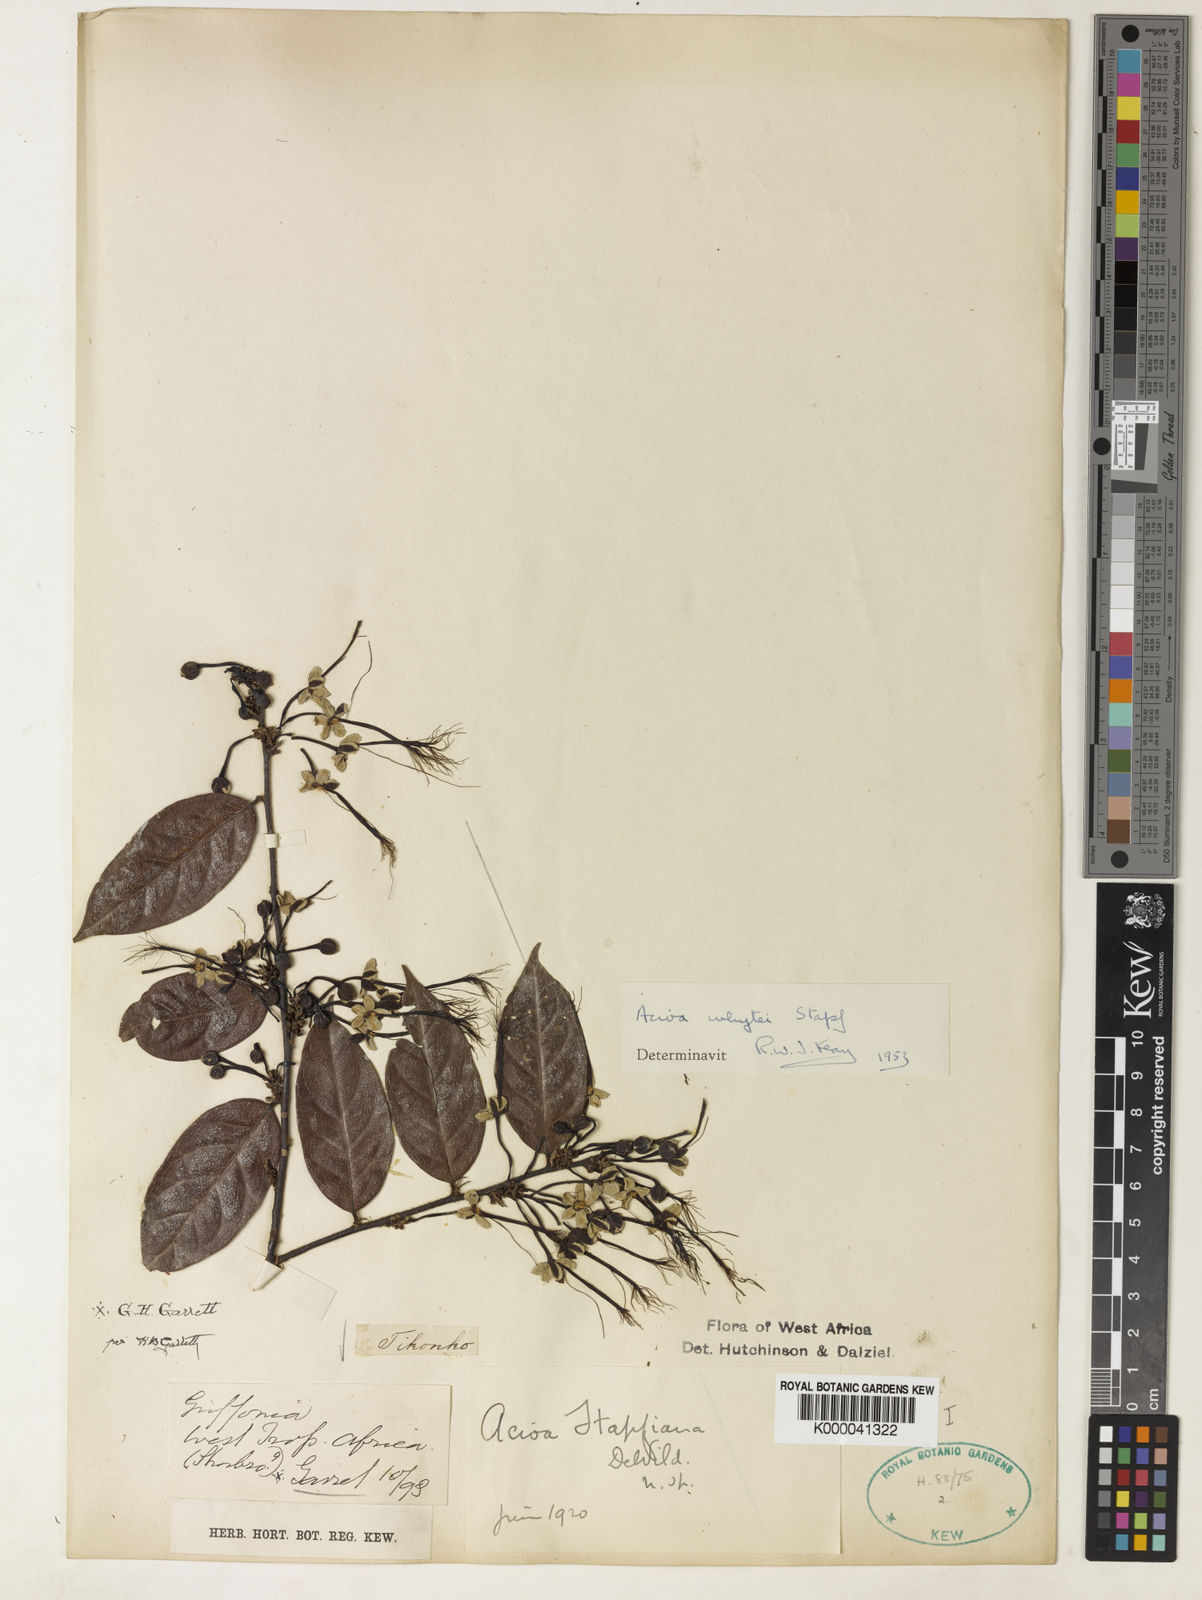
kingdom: Plantae
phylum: Tracheophyta
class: Magnoliopsida
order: Malpighiales
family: Chrysobalanaceae
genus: Dactyladenia
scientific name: Dactyladenia whytei
